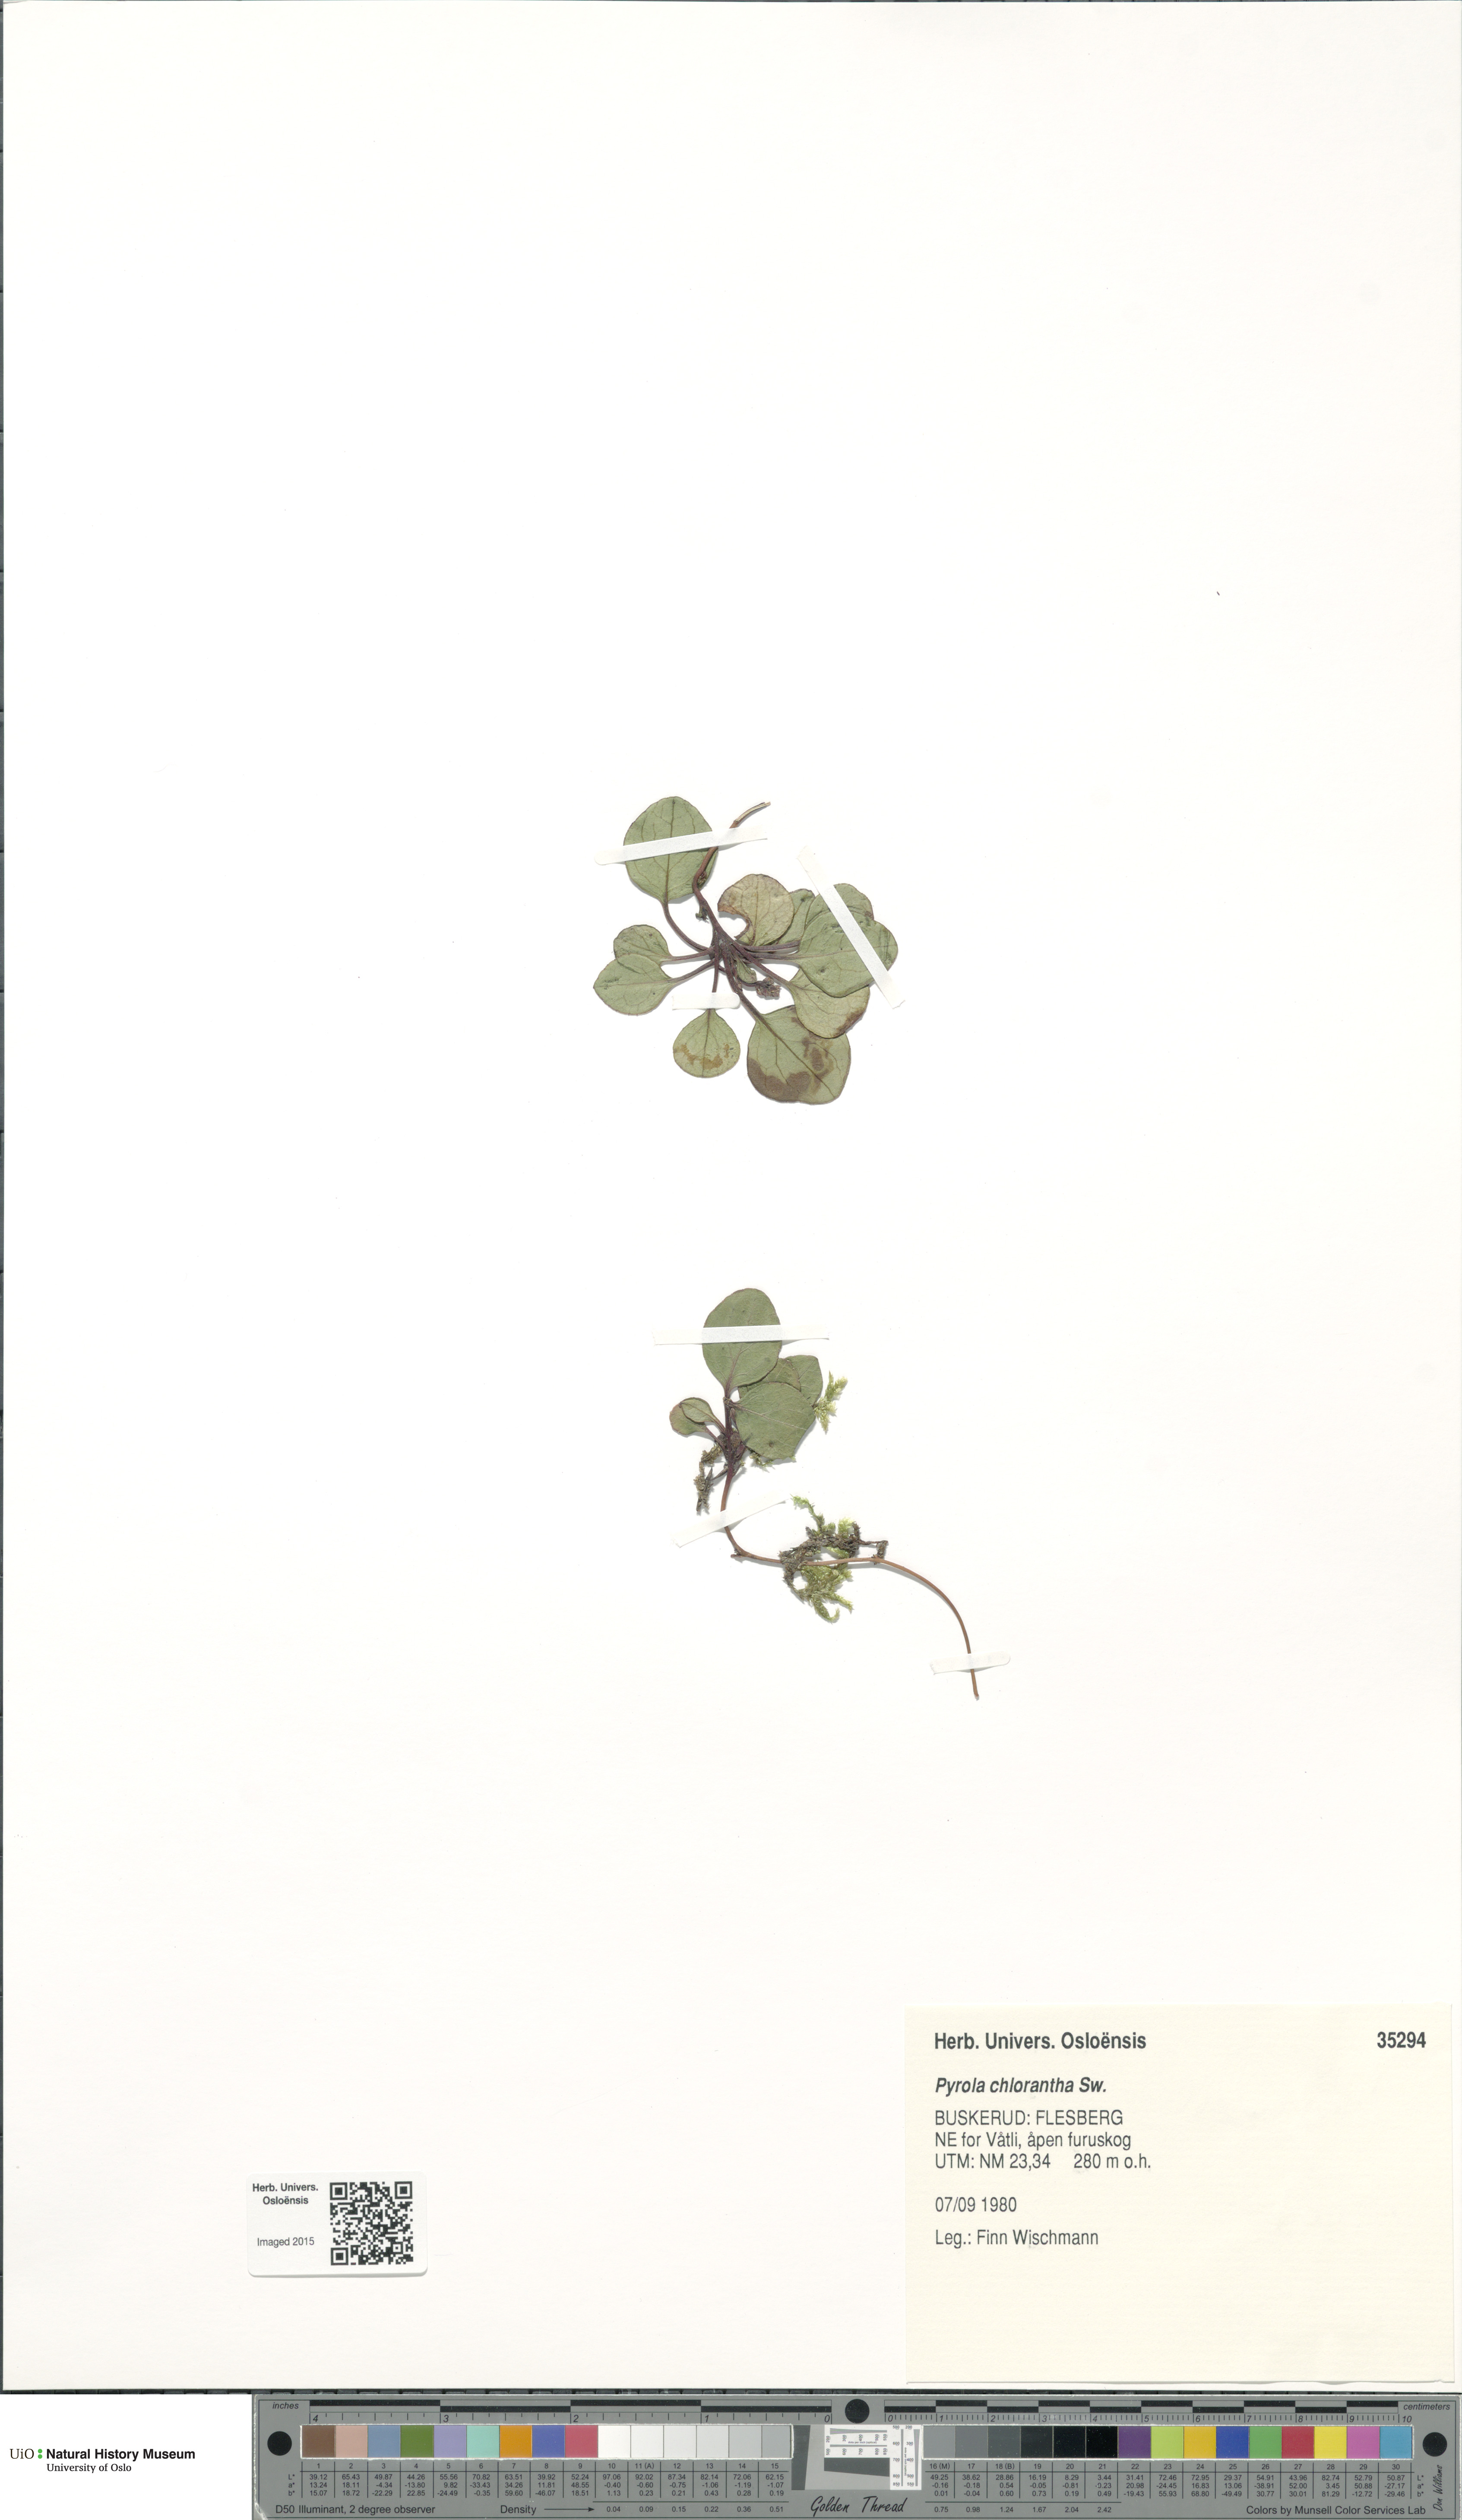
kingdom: Plantae
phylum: Tracheophyta
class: Magnoliopsida
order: Ericales
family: Ericaceae
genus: Pyrola
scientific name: Pyrola chlorantha
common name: Green wintergreen
